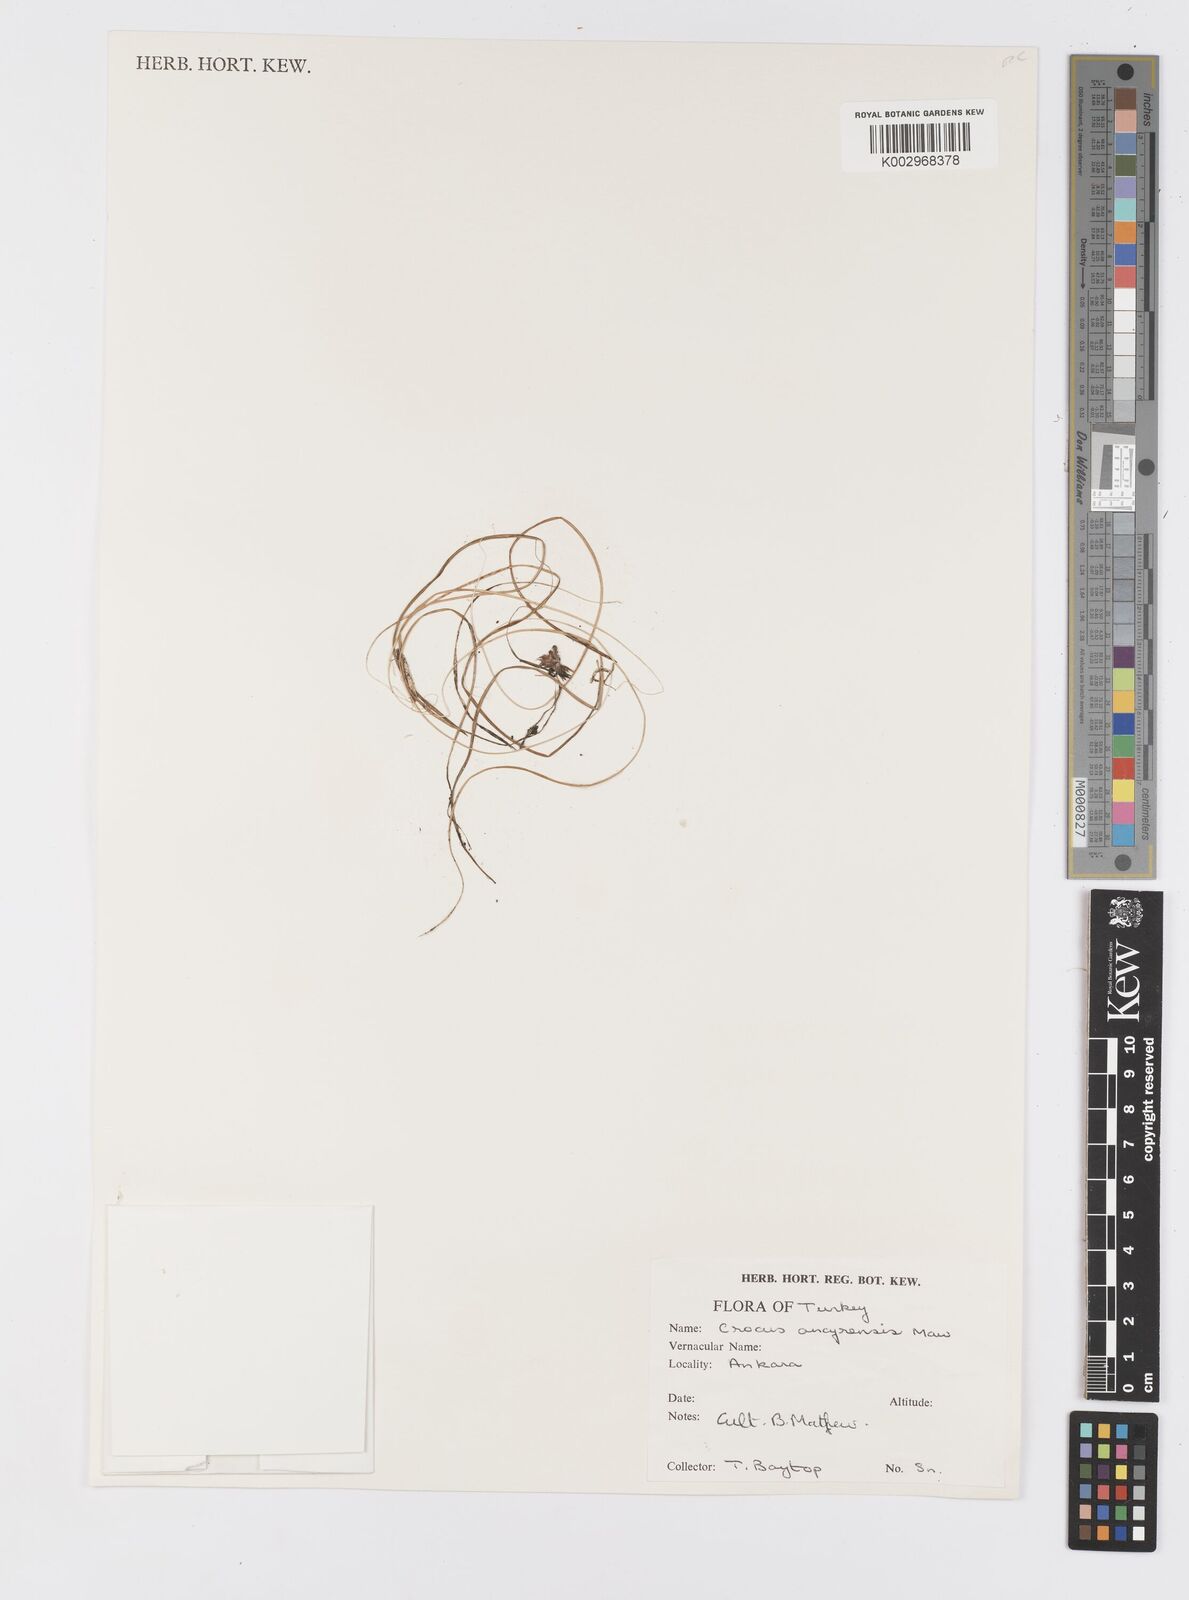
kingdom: Plantae
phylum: Tracheophyta
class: Liliopsida
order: Asparagales
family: Iridaceae
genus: Crocus
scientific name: Crocus ancyrensis
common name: Ankara crocus
